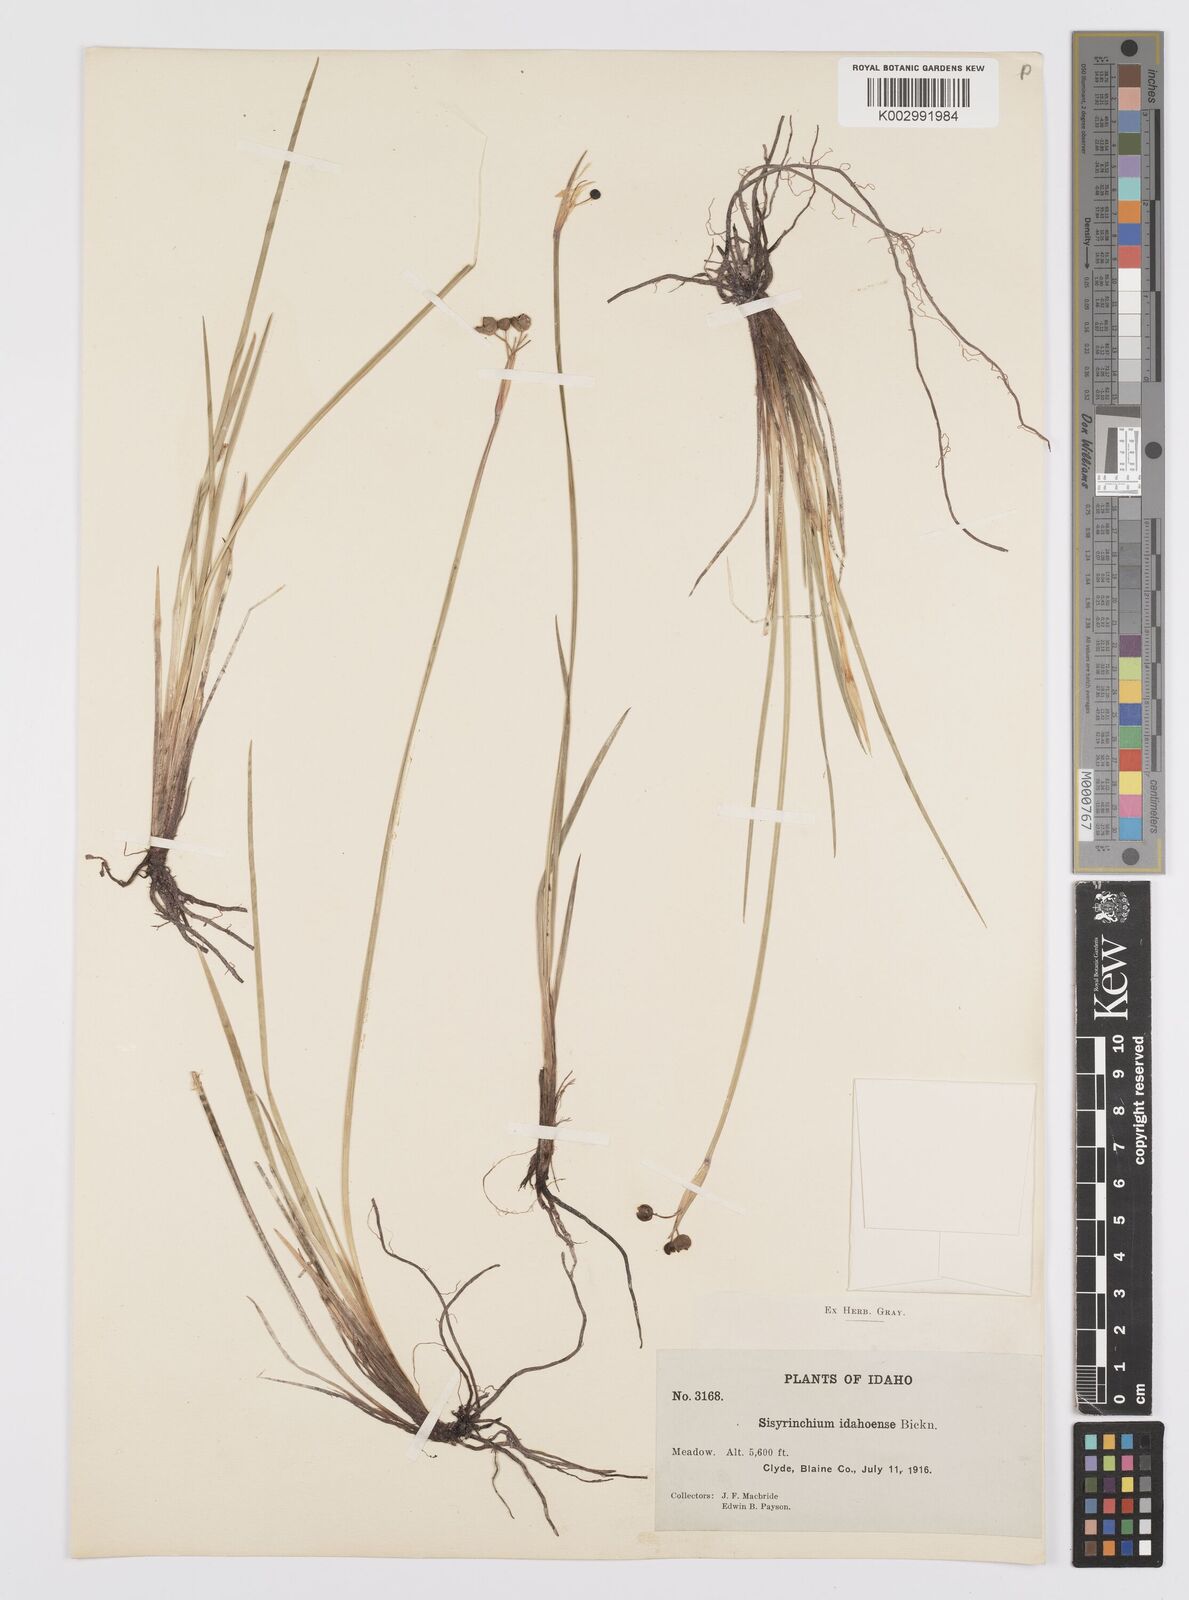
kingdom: Plantae
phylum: Tracheophyta
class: Liliopsida
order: Asparagales
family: Iridaceae
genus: Sisyrinchium
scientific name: Sisyrinchium idahoense
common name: Idaho blue-eyed-grass
